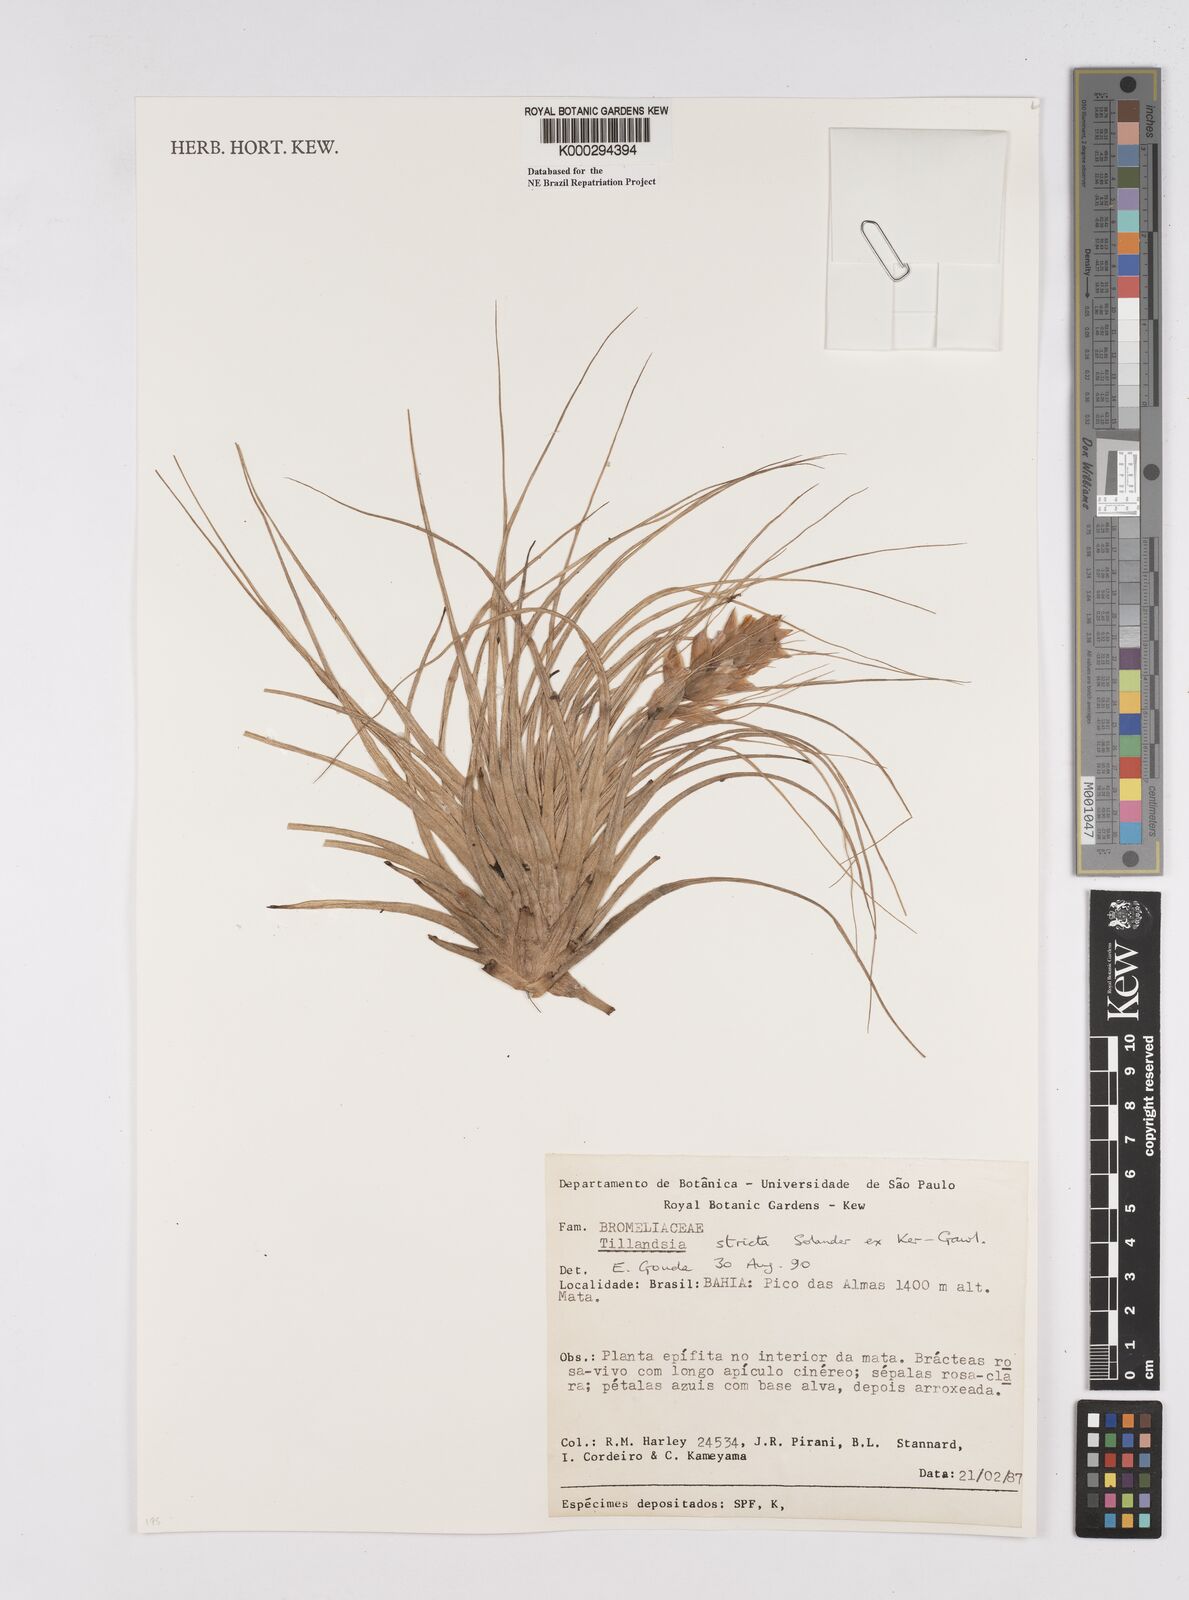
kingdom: Plantae
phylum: Tracheophyta
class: Liliopsida
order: Poales
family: Bromeliaceae
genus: Tillandsia
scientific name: Tillandsia
